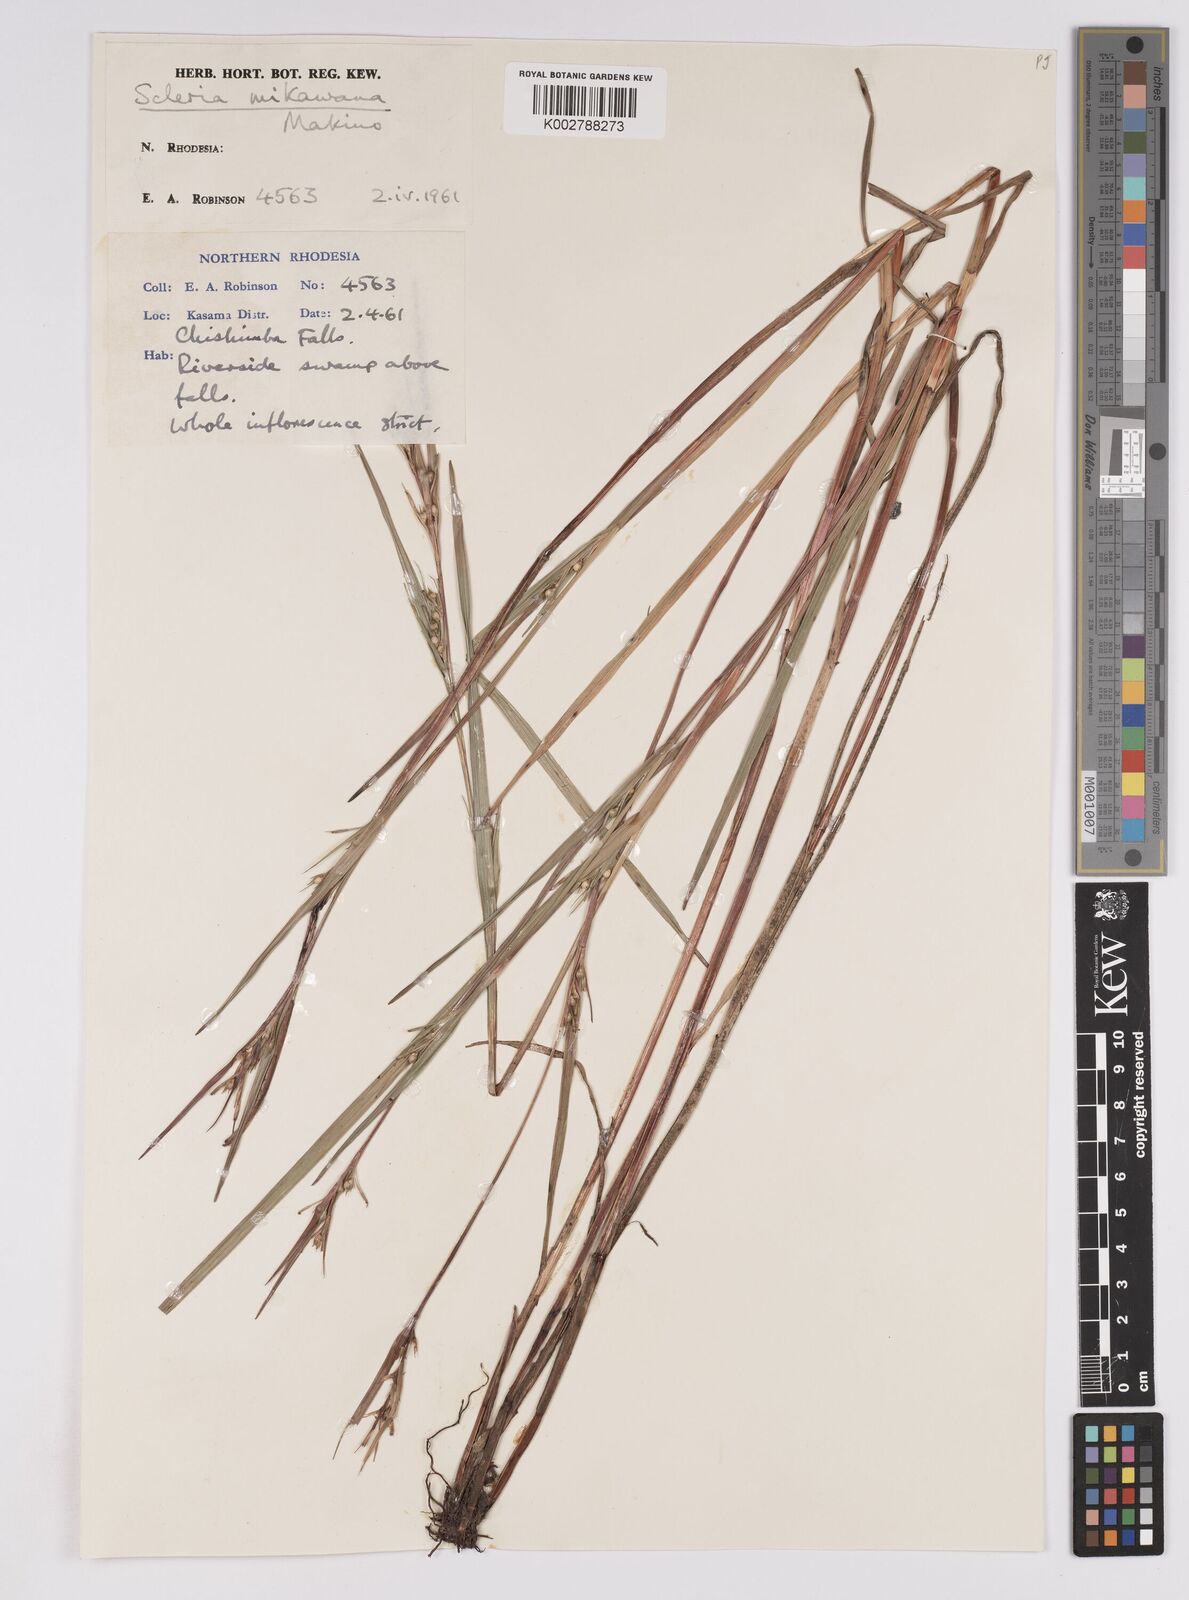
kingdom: Plantae
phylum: Tracheophyta
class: Liliopsida
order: Poales
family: Cyperaceae
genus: Scleria
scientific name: Scleria mikawana
